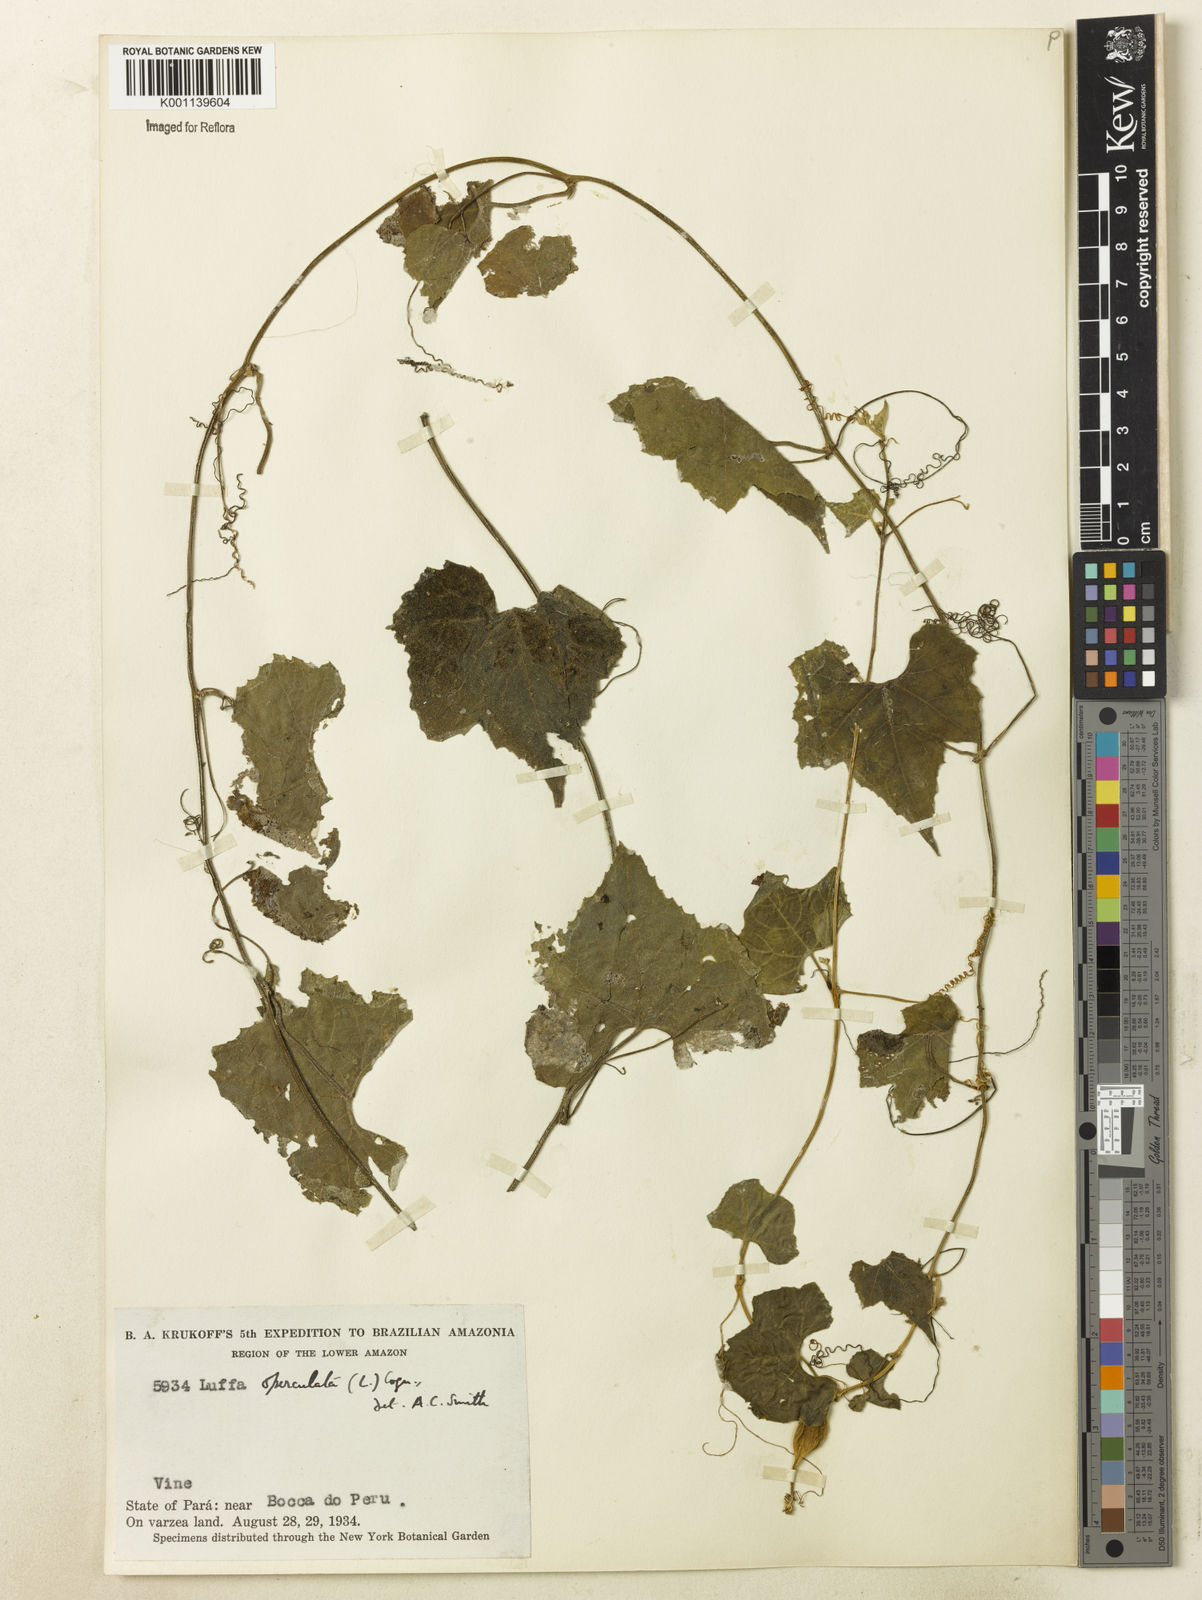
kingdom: Plantae
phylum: Tracheophyta
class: Magnoliopsida
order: Cucurbitales
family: Cucurbitaceae
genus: Luffa
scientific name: Luffa operculata
